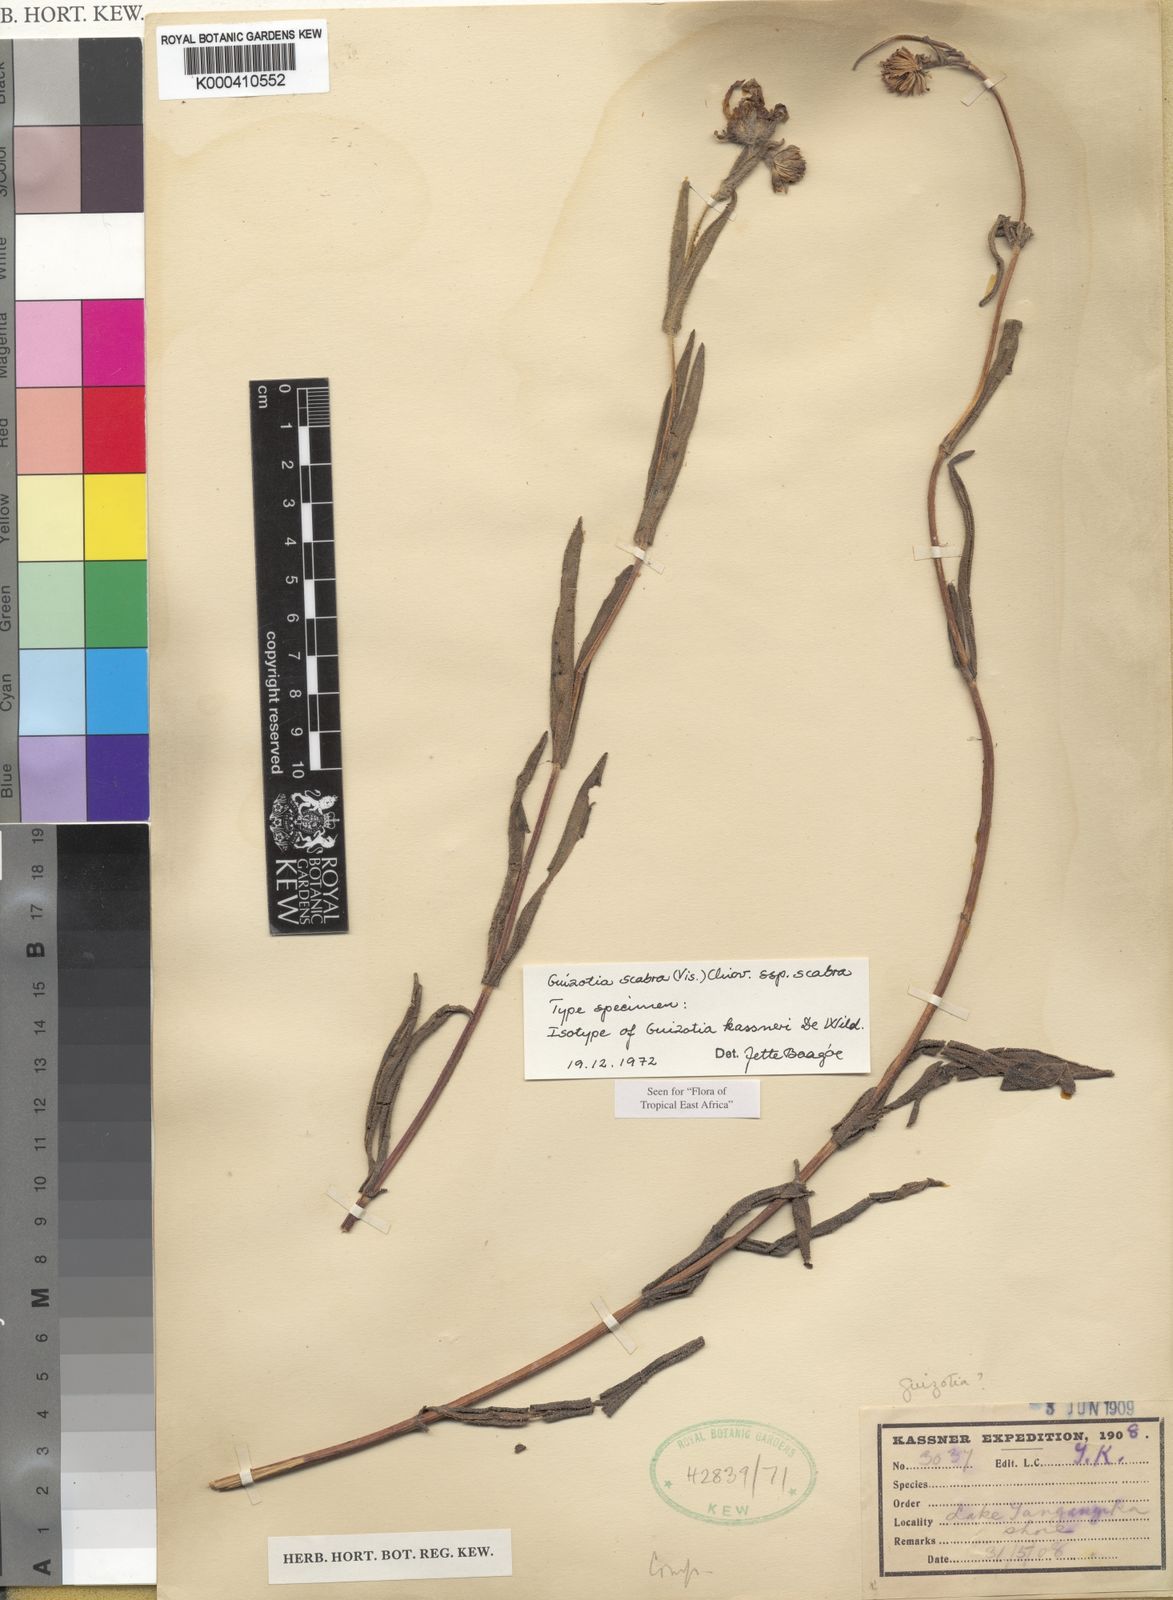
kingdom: Plantae
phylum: Tracheophyta
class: Magnoliopsida
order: Asterales
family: Asteraceae
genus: Guizotia
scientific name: Guizotia scabra
